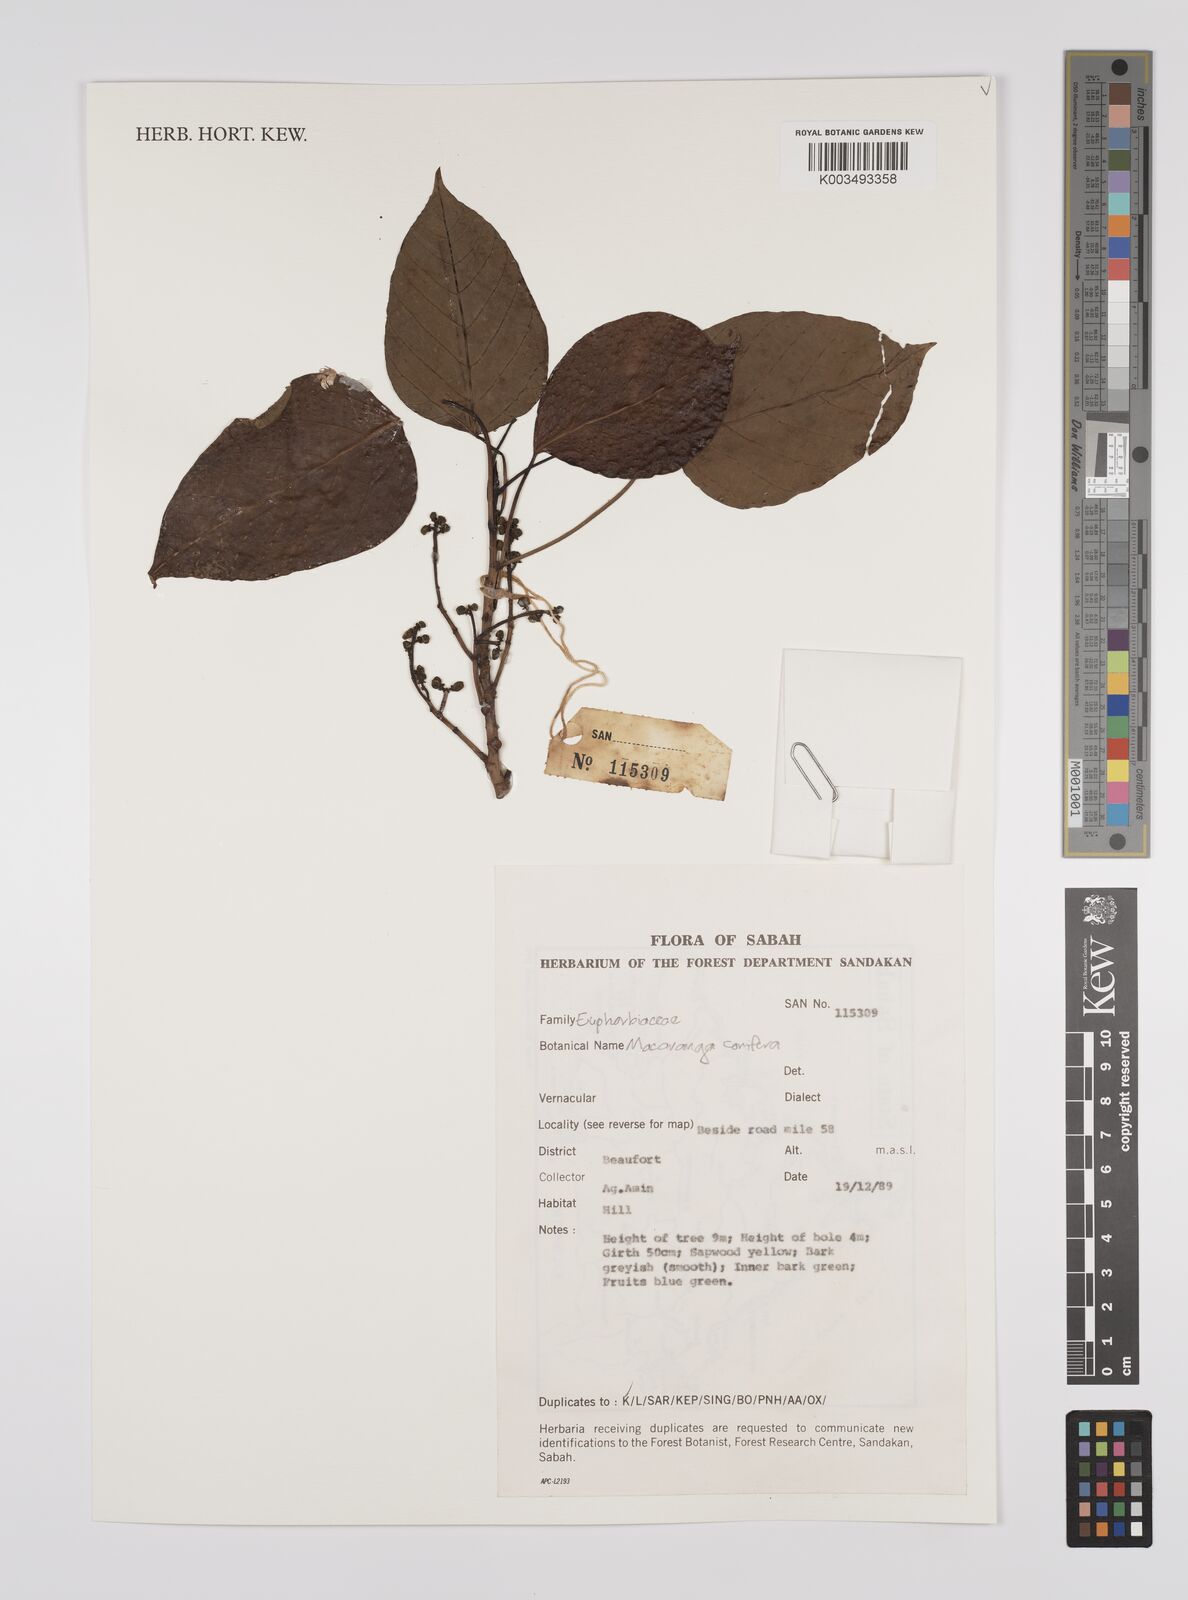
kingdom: Plantae
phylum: Tracheophyta
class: Magnoliopsida
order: Malpighiales
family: Euphorbiaceae
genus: Macaranga
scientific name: Macaranga conifera
